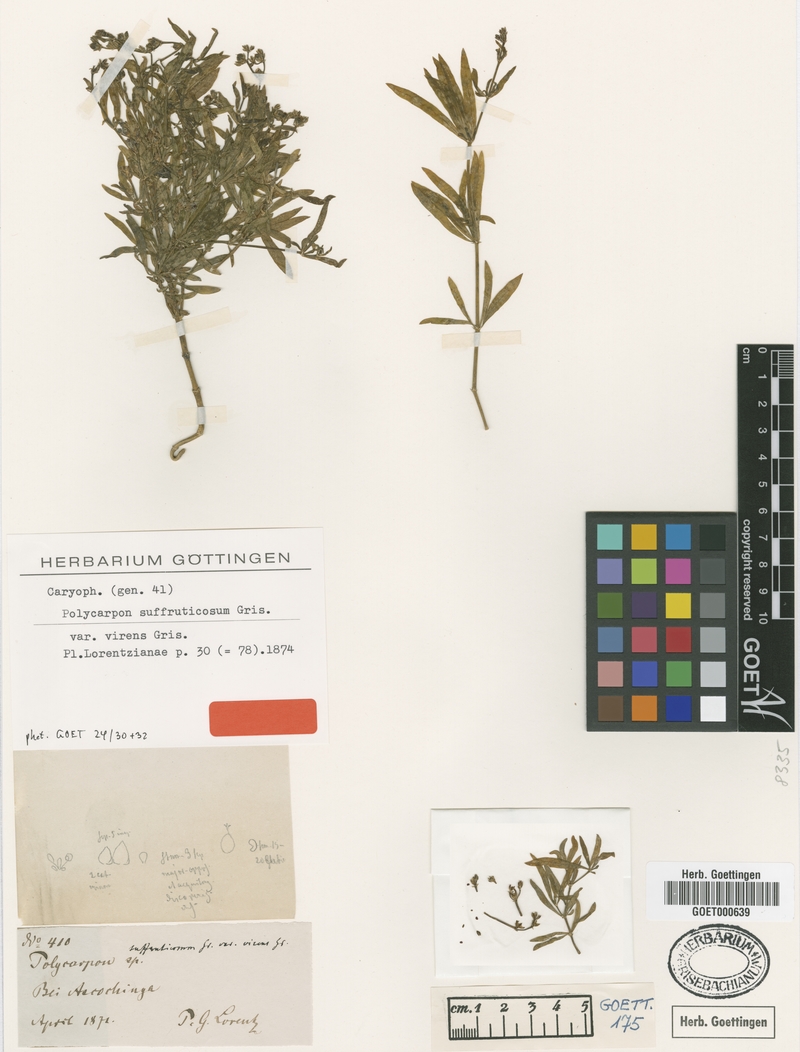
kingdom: Plantae
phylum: Tracheophyta
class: Magnoliopsida
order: Caryophyllales
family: Caryophyllaceae
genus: Augustea
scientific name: Augustea suffruticosa
